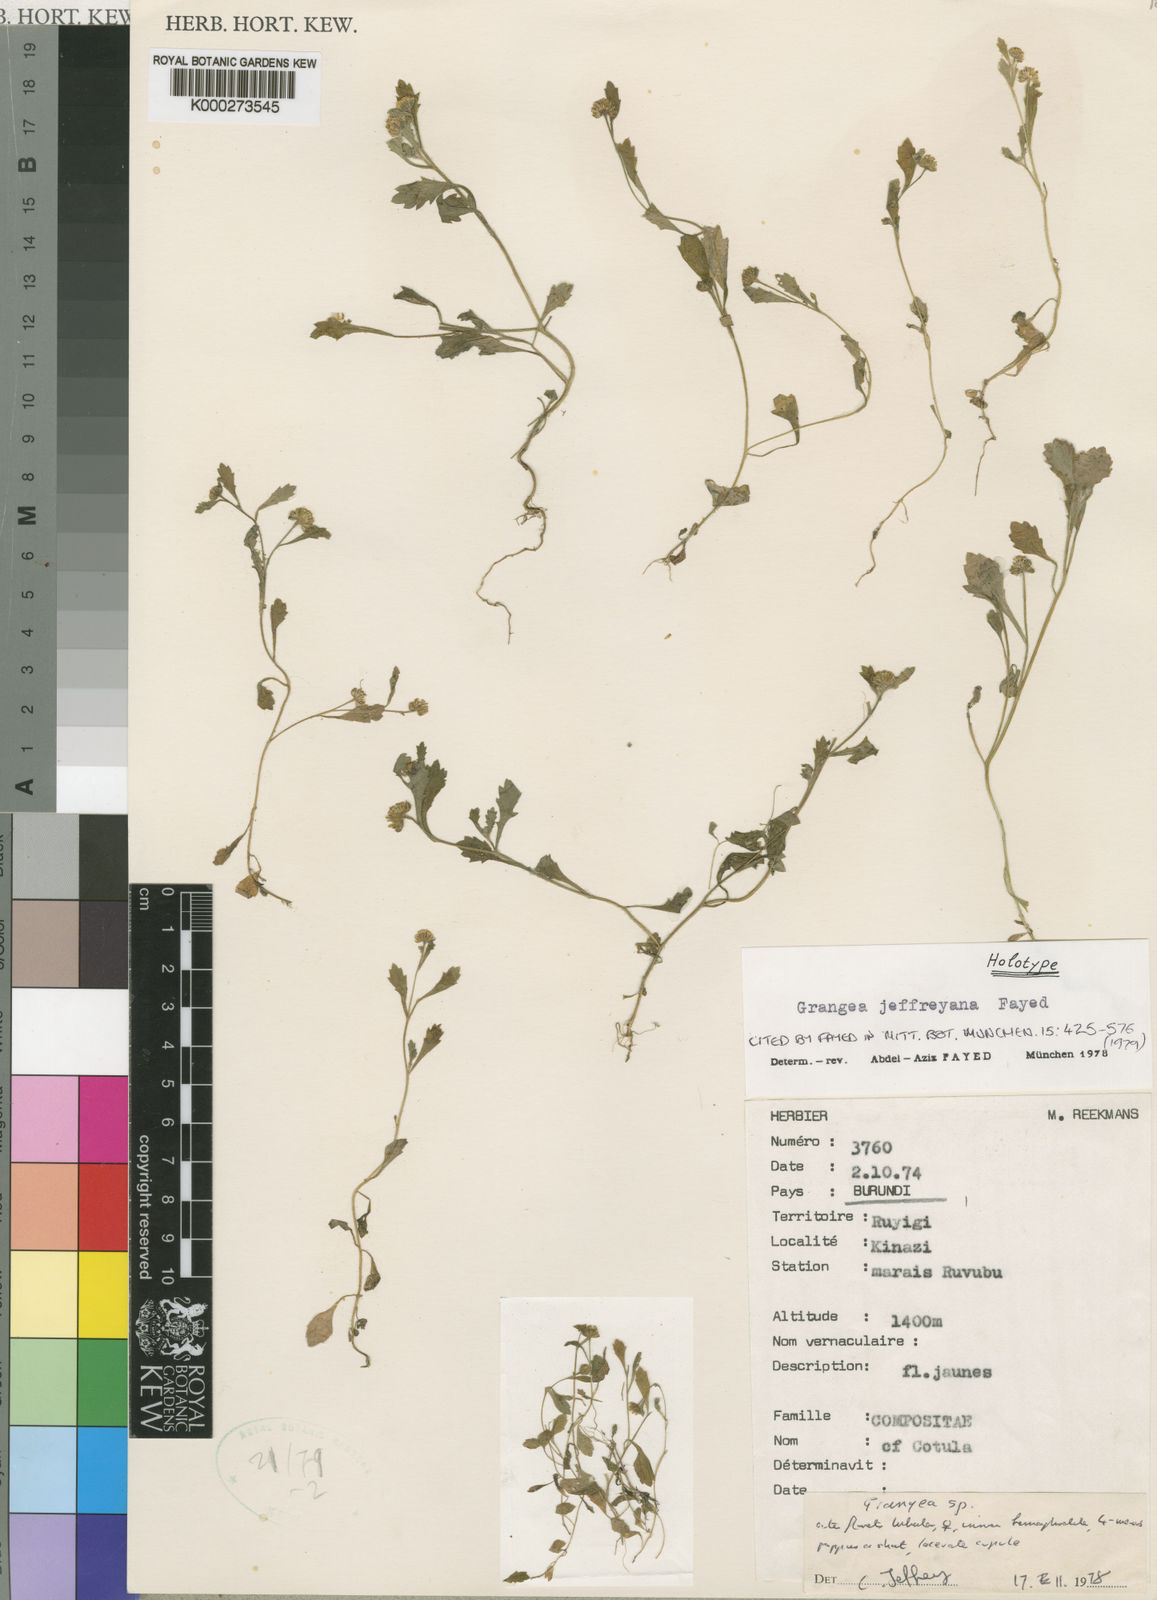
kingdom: Plantae
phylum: Tracheophyta
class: Magnoliopsida
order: Asterales
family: Asteraceae
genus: Grangea
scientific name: Grangea jeffreyana
